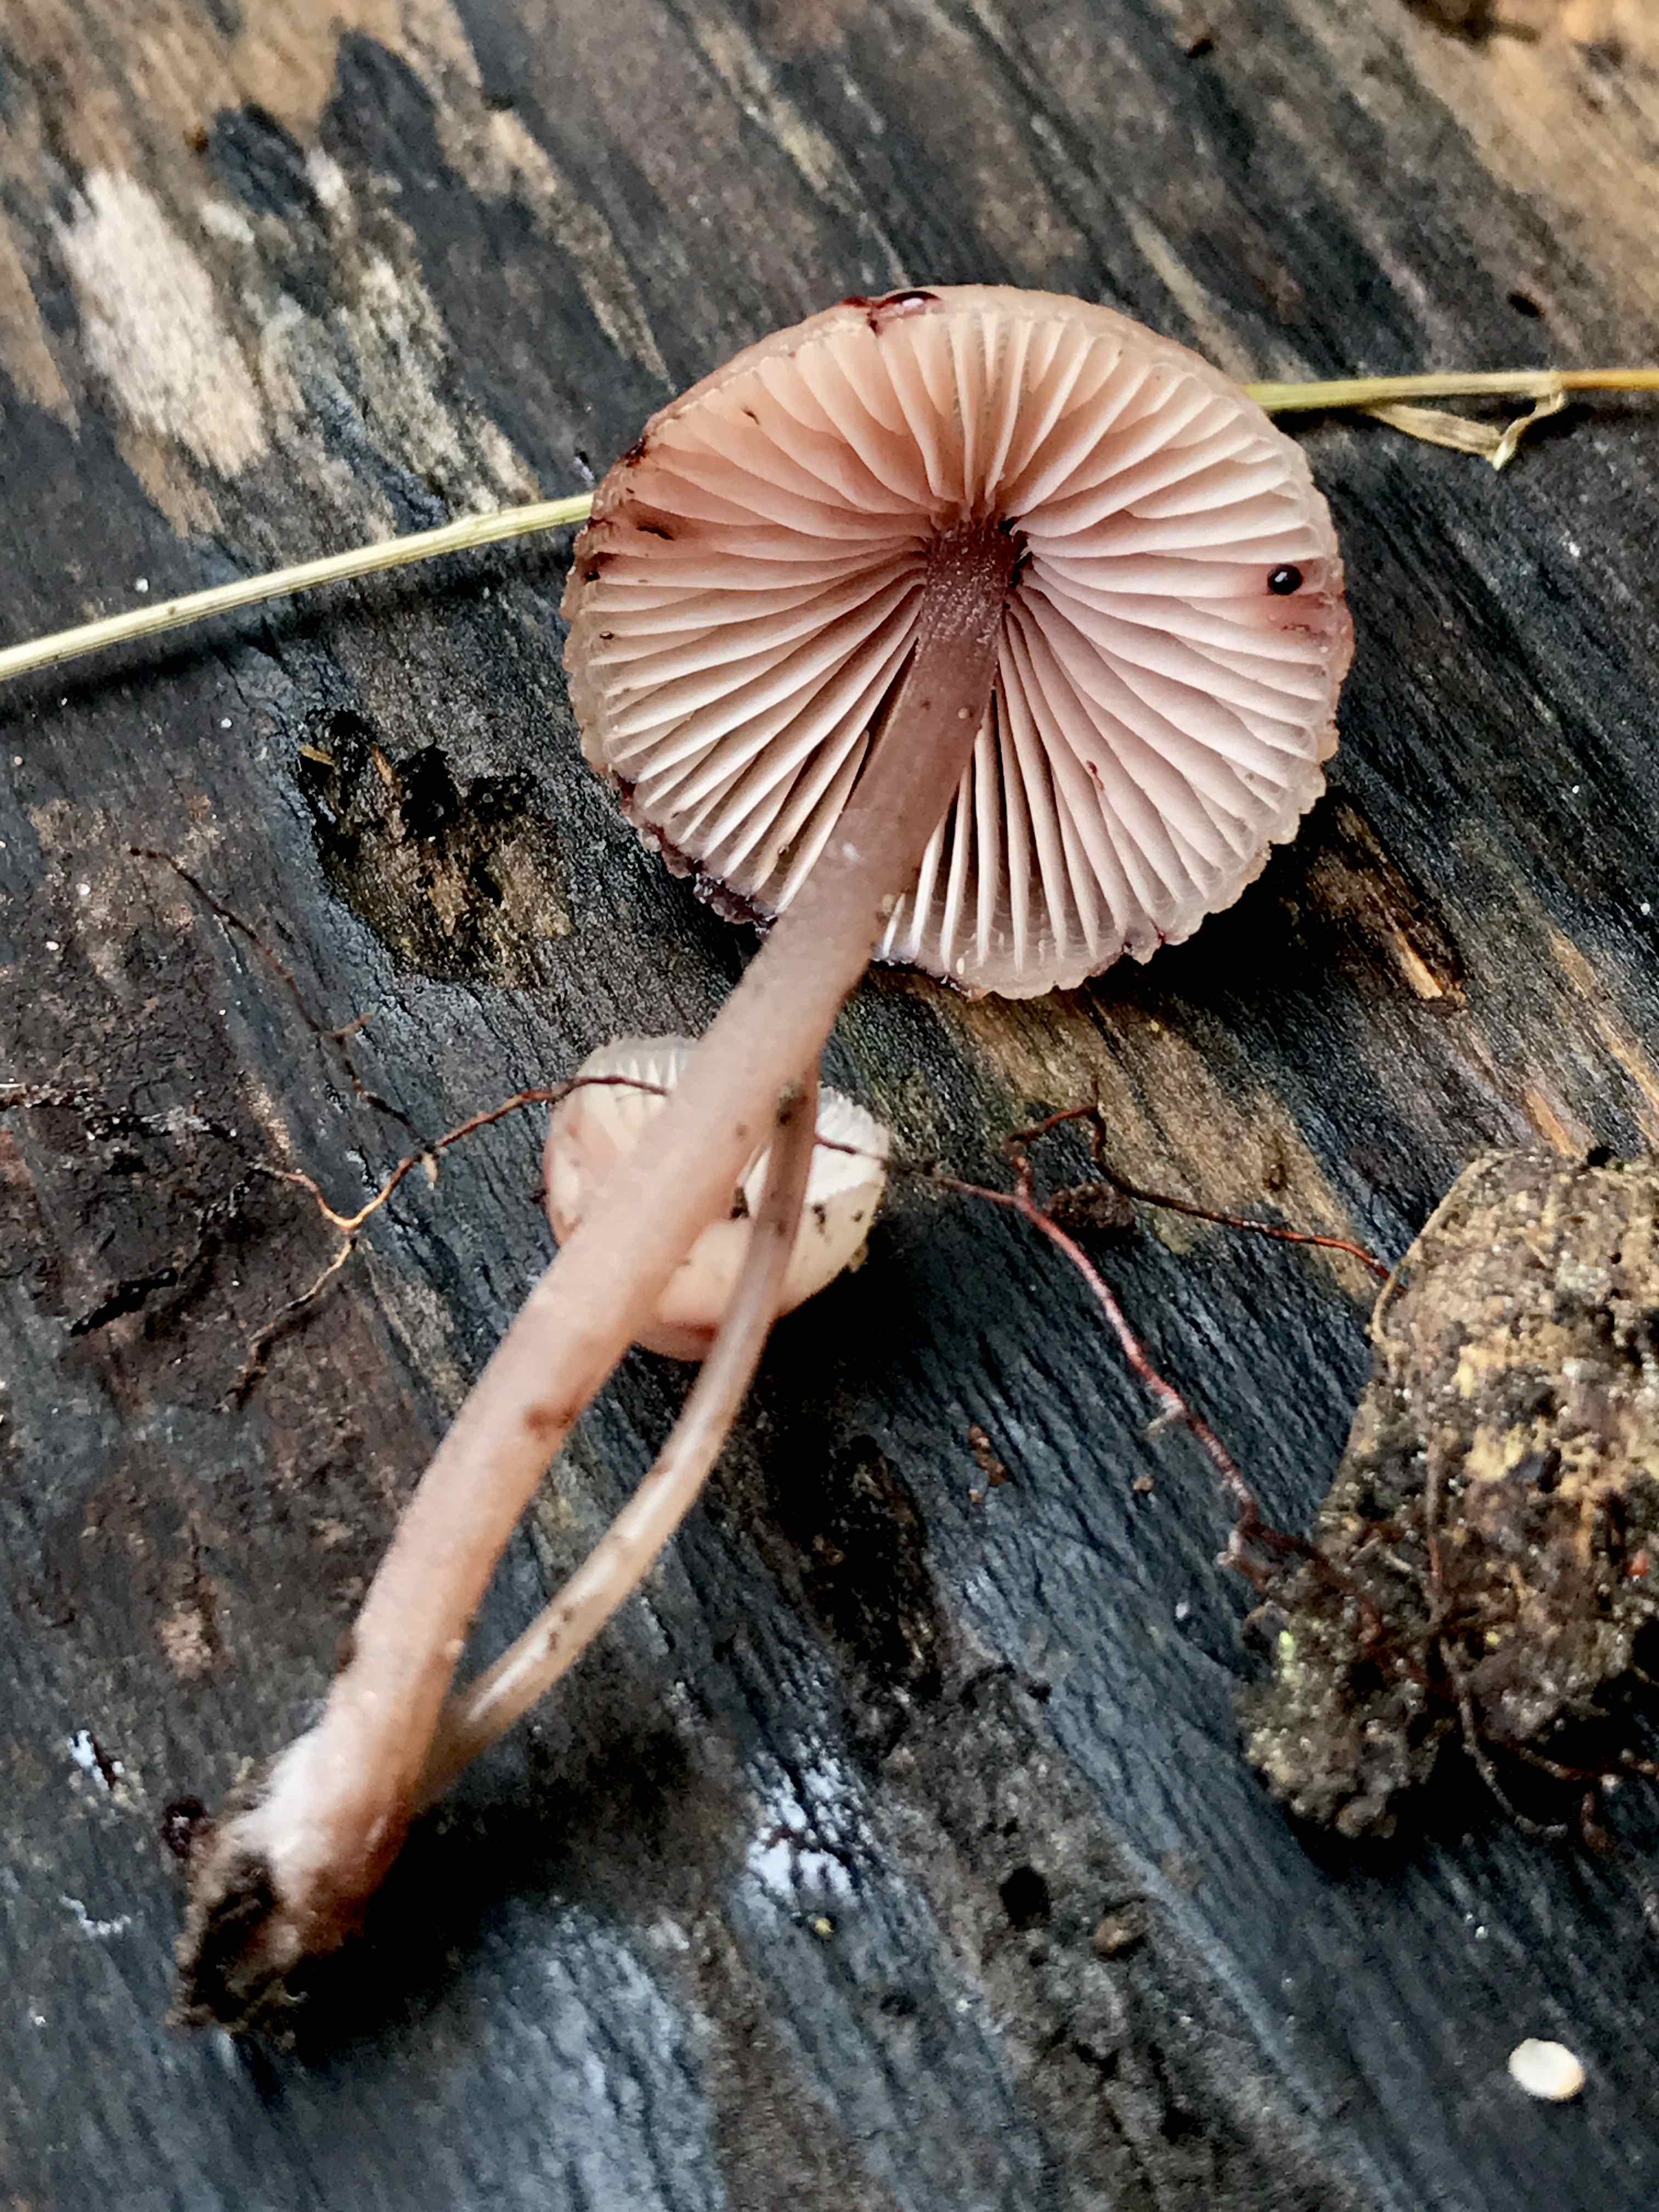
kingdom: Fungi
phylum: Basidiomycota
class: Agaricomycetes
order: Agaricales
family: Mycenaceae
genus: Mycena
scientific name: Mycena haematopus
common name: blødende huesvamp
